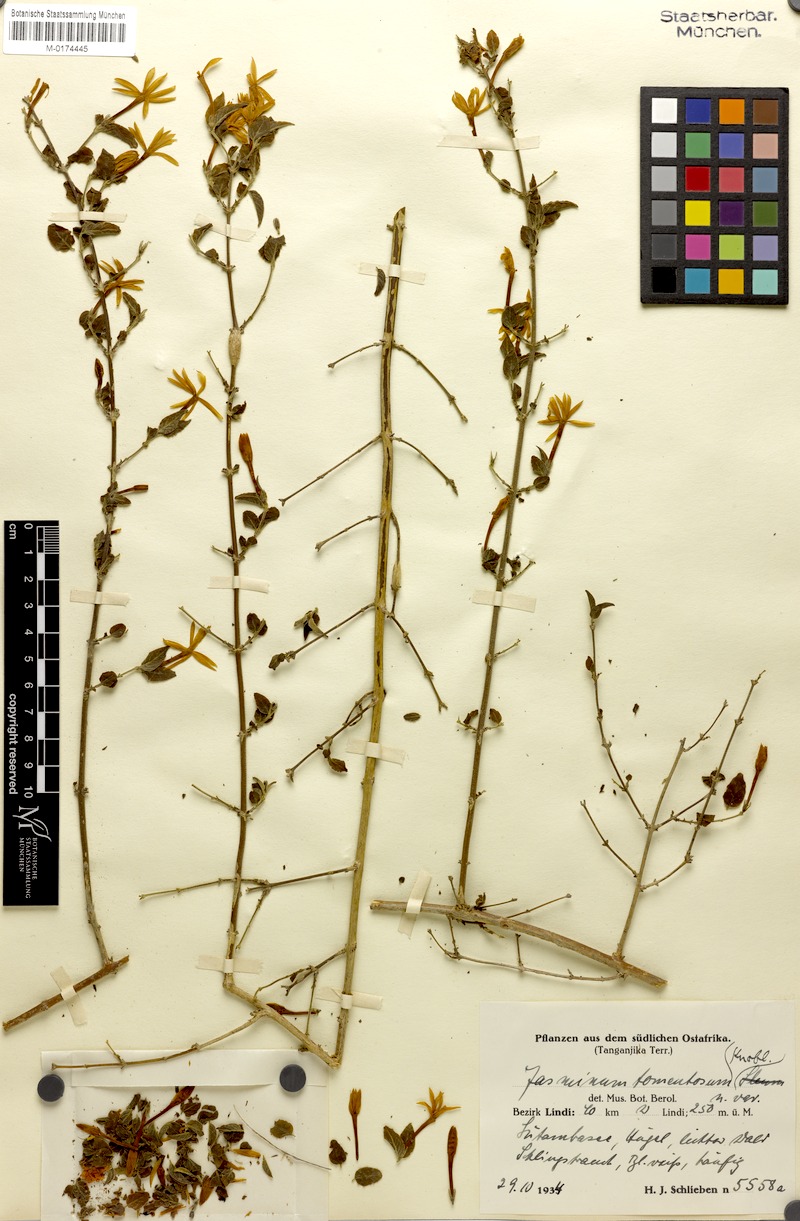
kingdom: Plantae
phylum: Tracheophyta
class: Magnoliopsida
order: Lamiales
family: Oleaceae
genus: Jasminum
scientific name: Jasminum stenolobum
